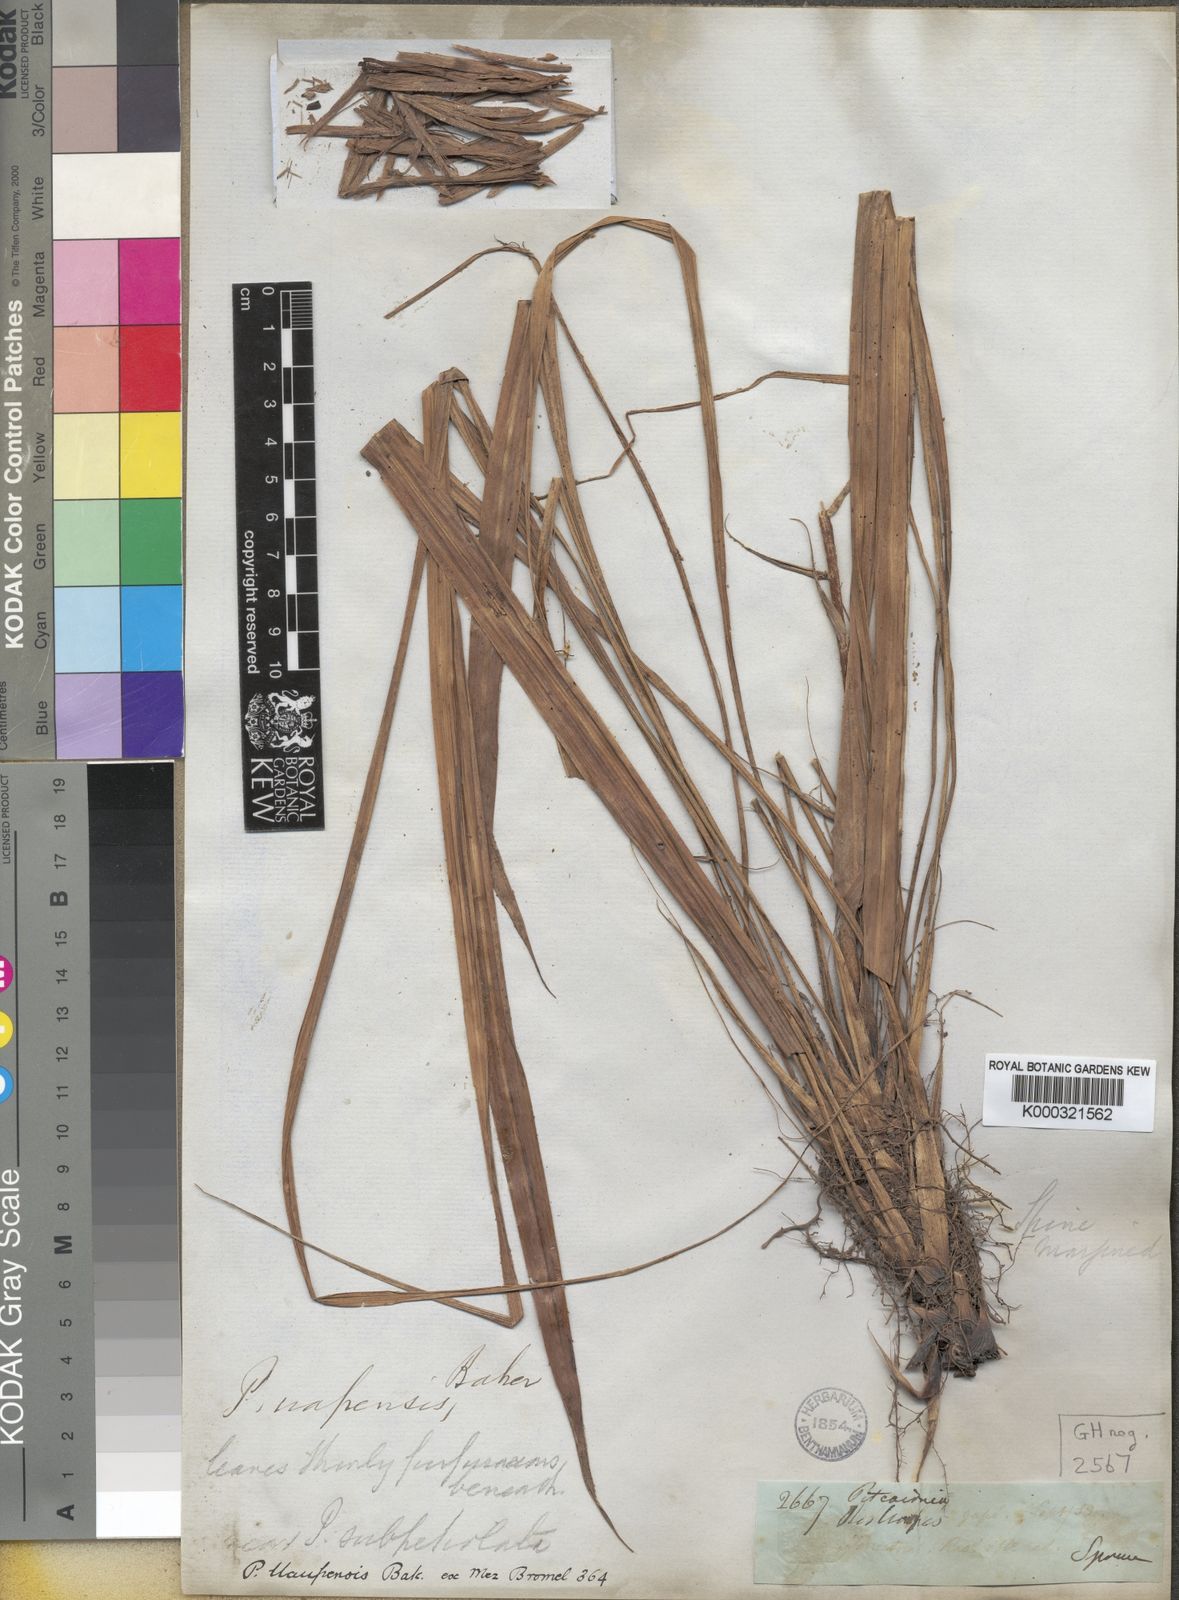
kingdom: Plantae
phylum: Tracheophyta
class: Liliopsida
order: Poales
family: Bromeliaceae
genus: Pitcairnia
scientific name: Pitcairnia uaupensis
